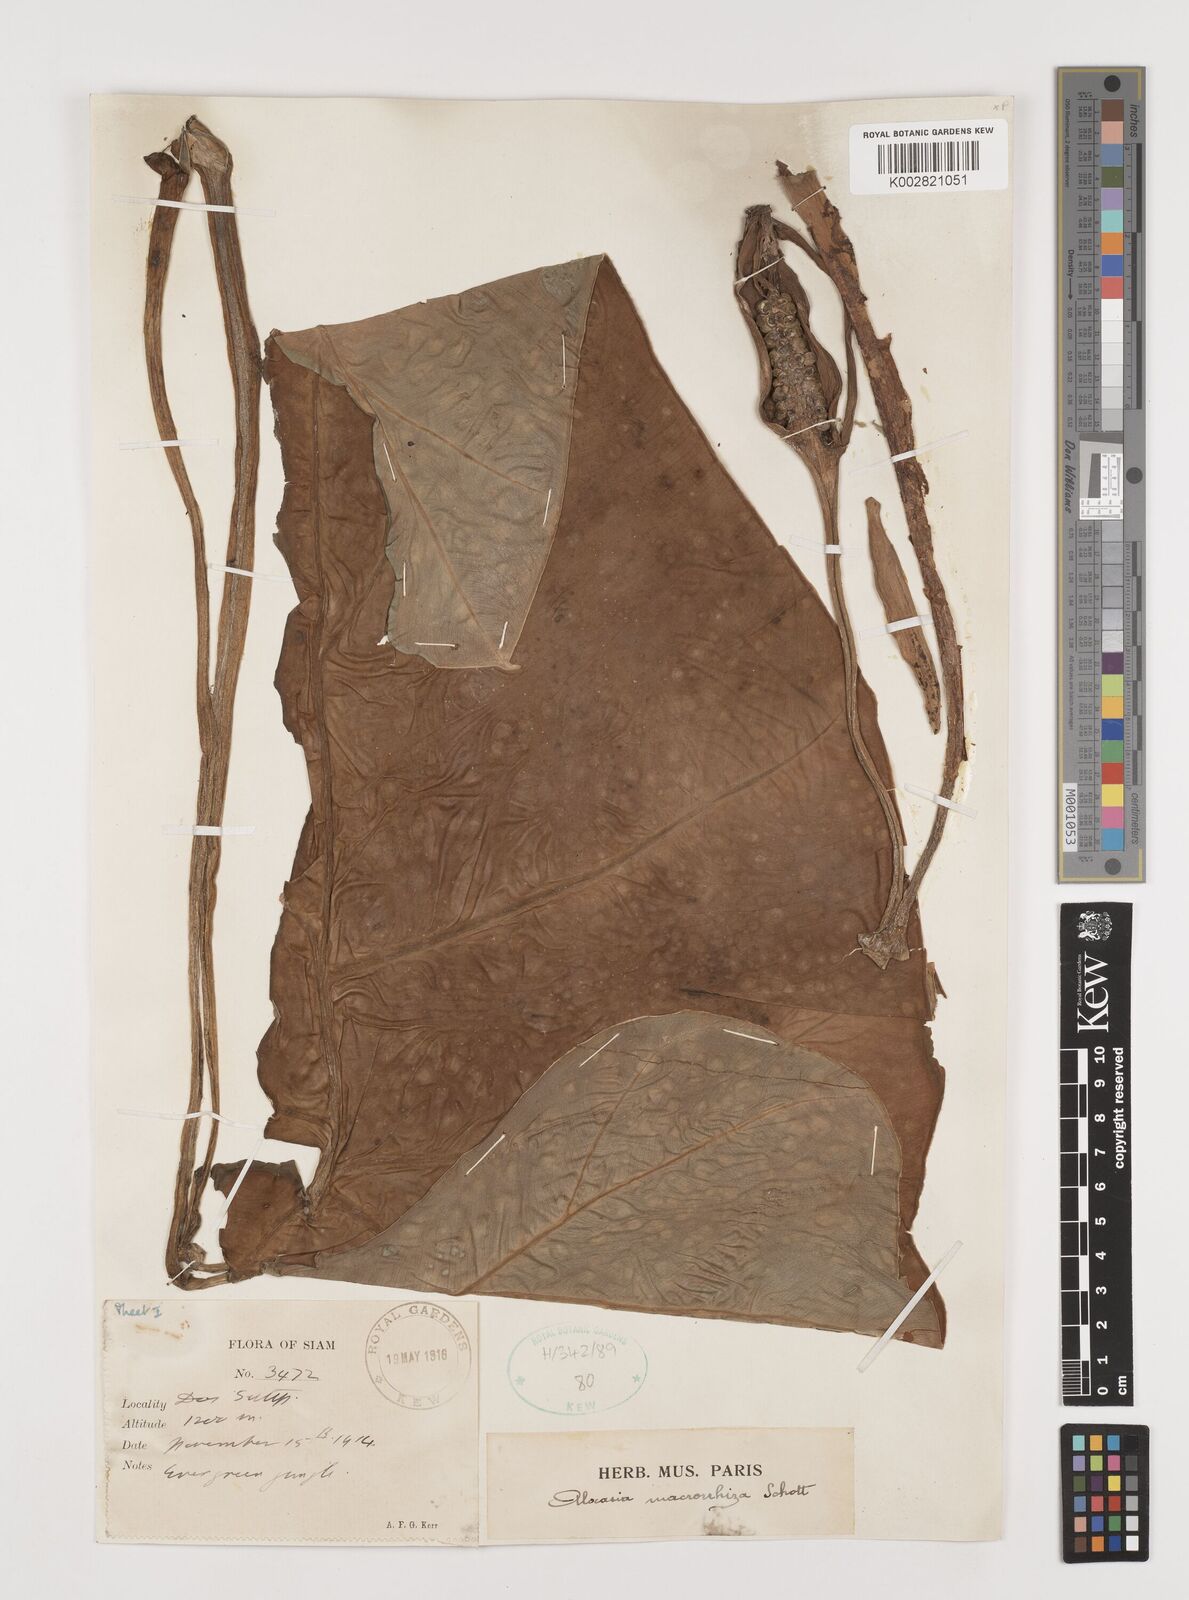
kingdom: Plantae
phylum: Tracheophyta
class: Liliopsida
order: Alismatales
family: Araceae
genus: Alocasia
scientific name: Alocasia macrorrhizos
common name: Giant taro
